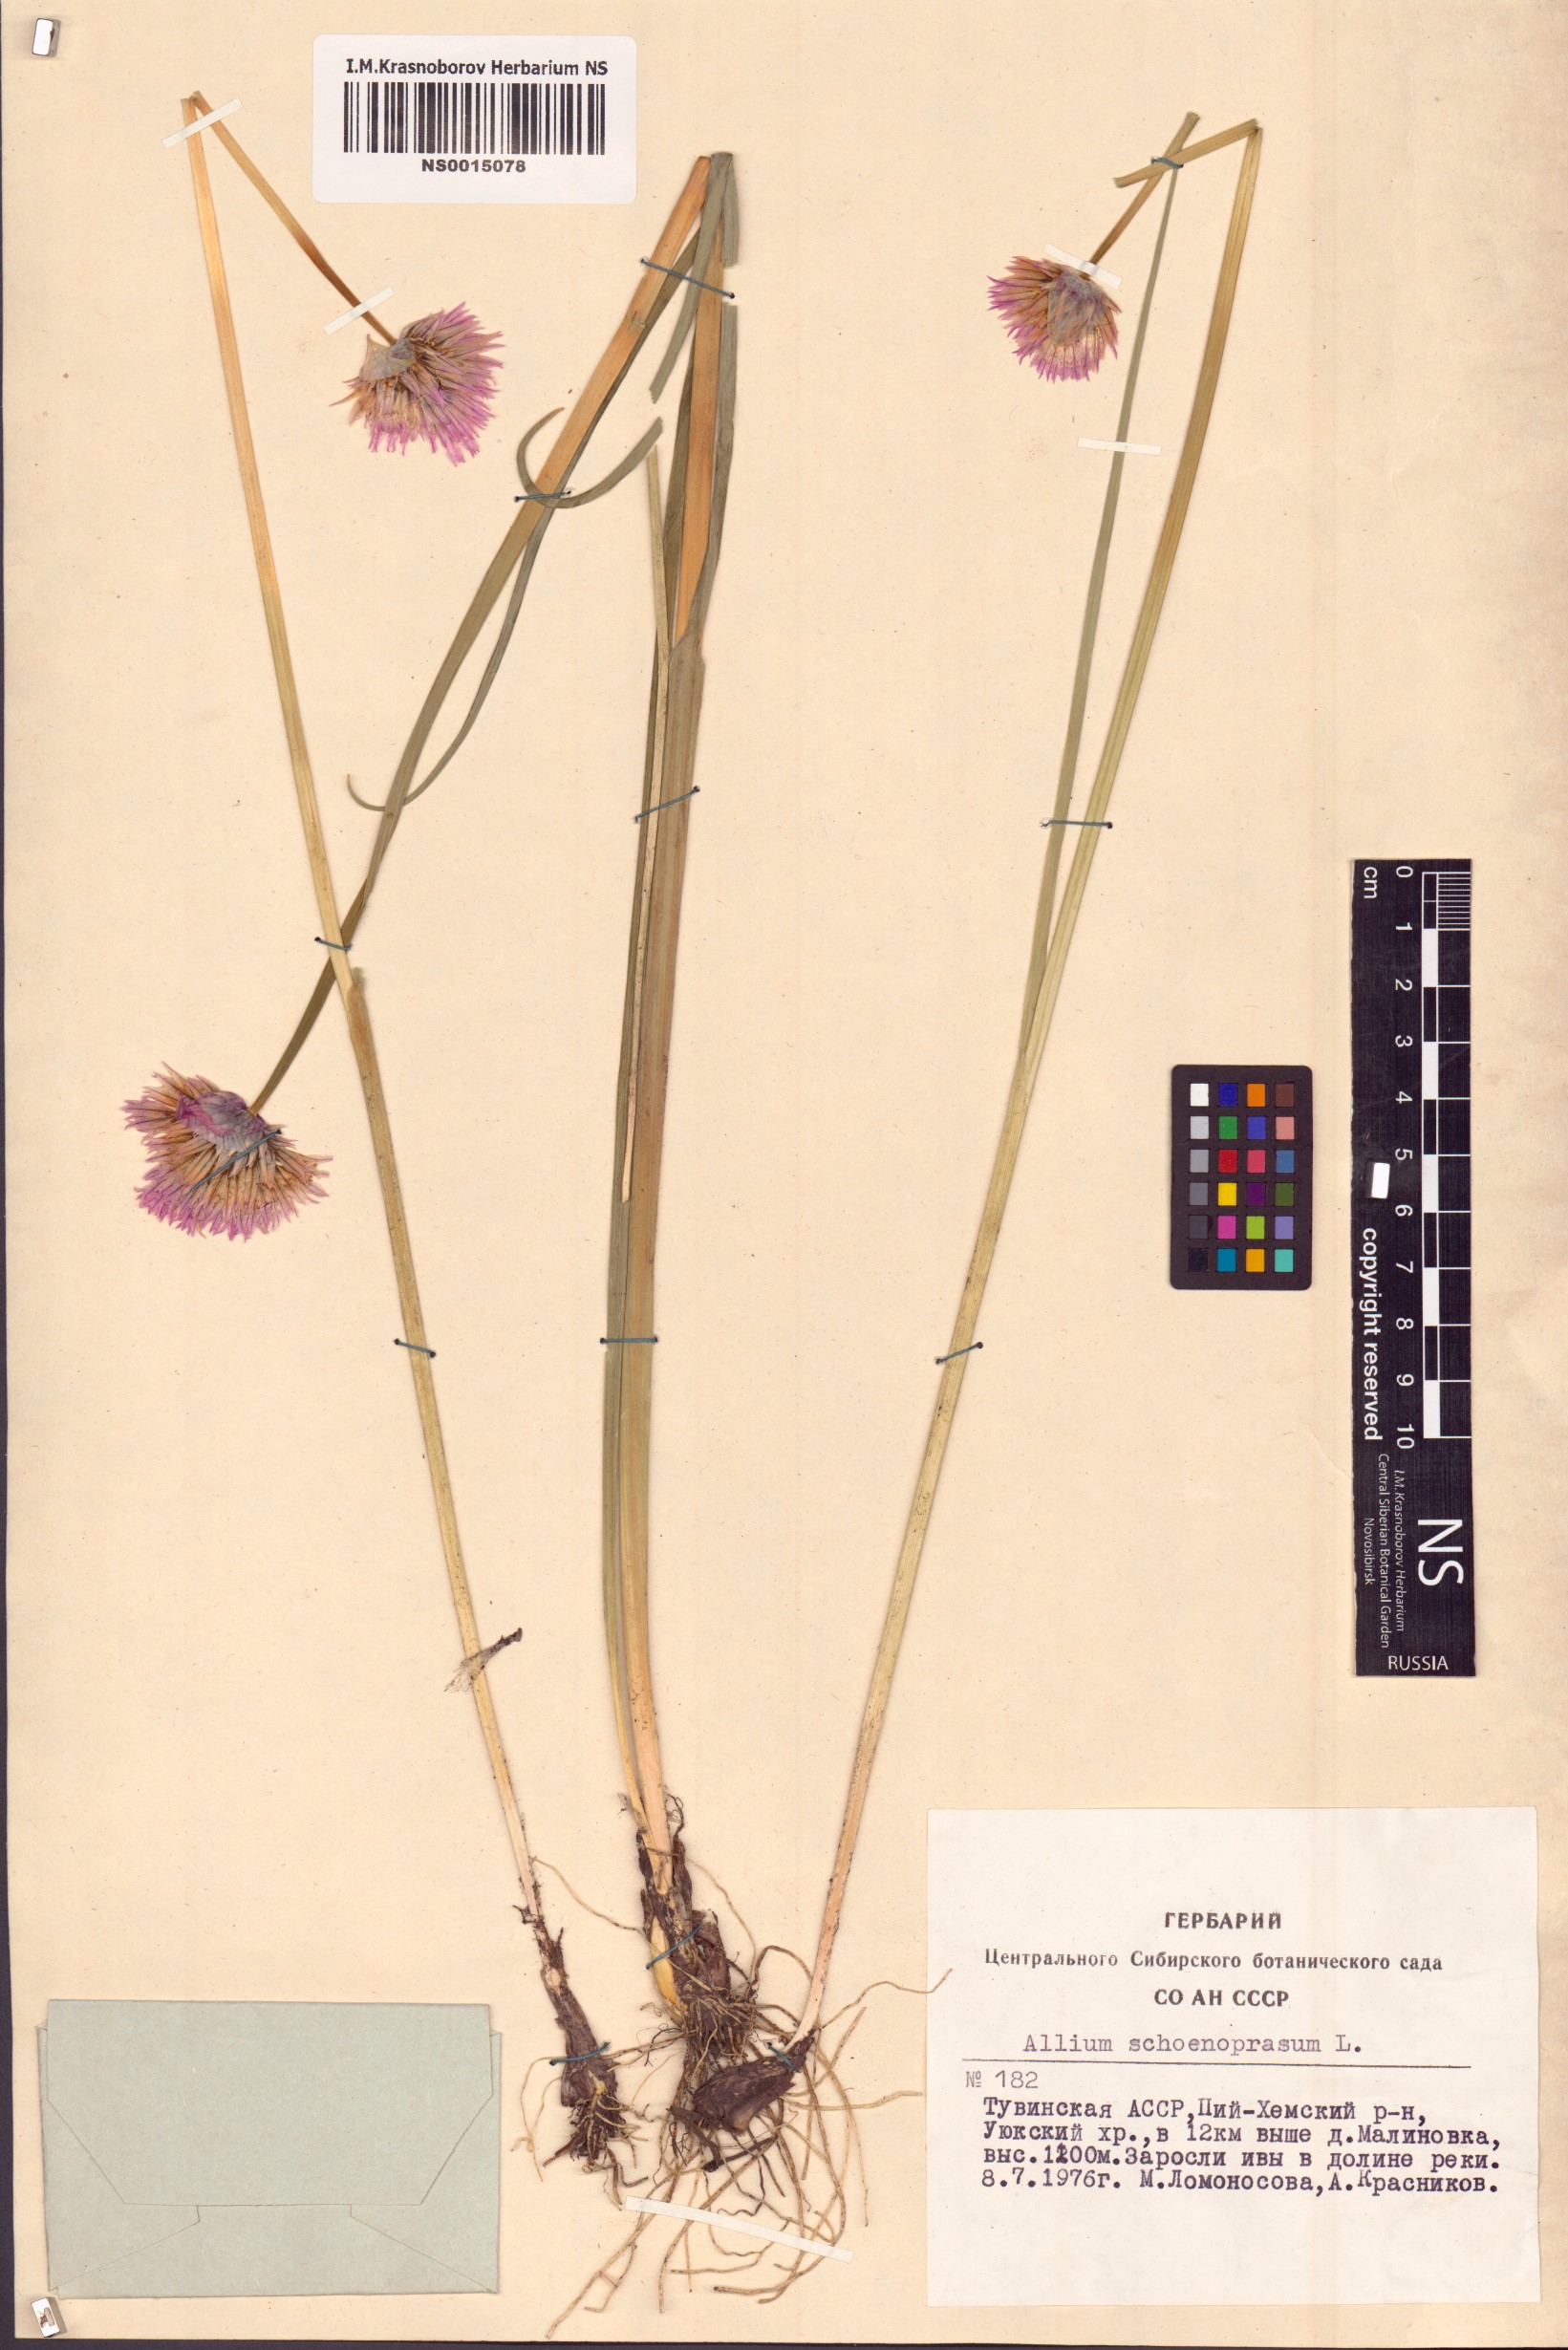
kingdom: Plantae
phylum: Tracheophyta
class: Liliopsida
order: Asparagales
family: Amaryllidaceae
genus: Allium
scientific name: Allium schoenoprasum
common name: Chives
